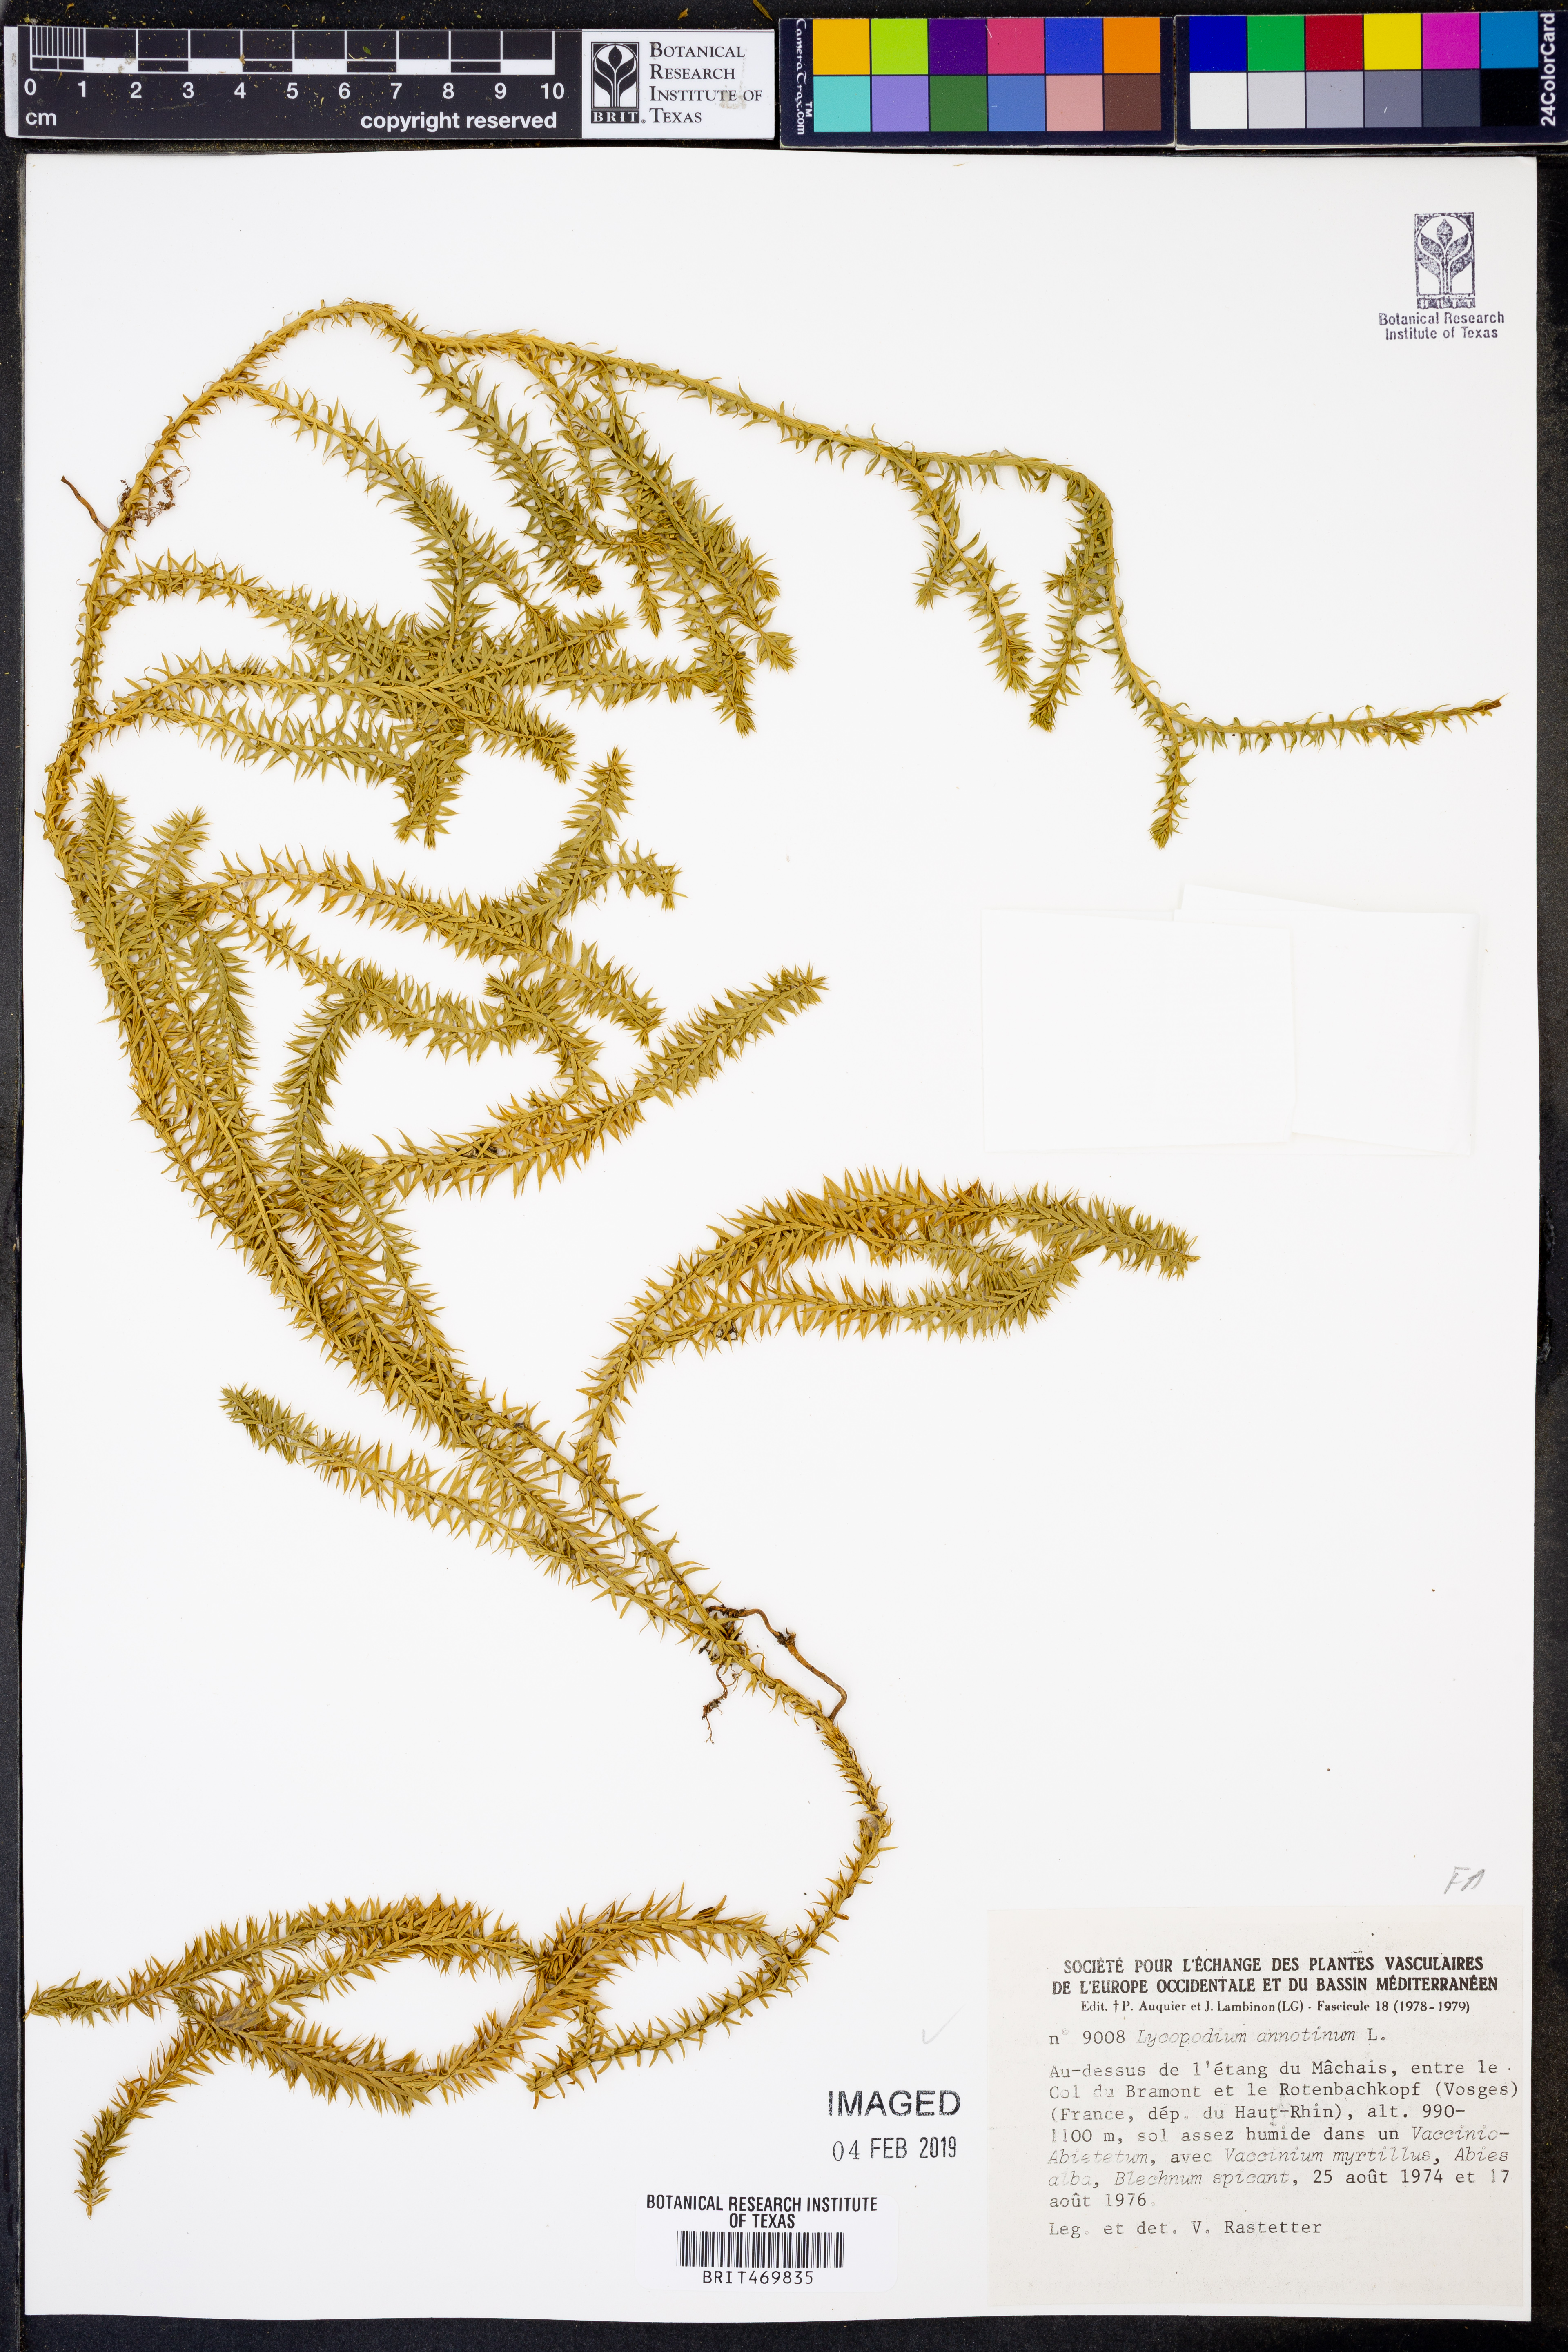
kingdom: Plantae
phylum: Tracheophyta
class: Lycopodiopsida
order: Lycopodiales
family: Lycopodiaceae
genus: Spinulum
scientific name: Spinulum annotinum
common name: Interrupted club-moss
